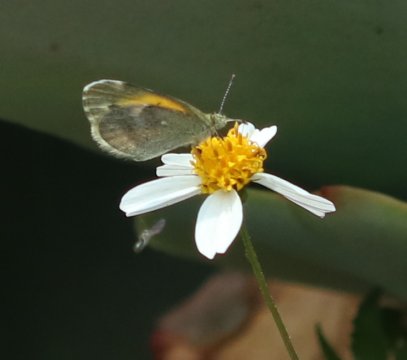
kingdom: Animalia
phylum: Arthropoda
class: Insecta
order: Lepidoptera
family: Pieridae
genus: Nathalis
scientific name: Nathalis iole
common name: Dainty Sulphur
